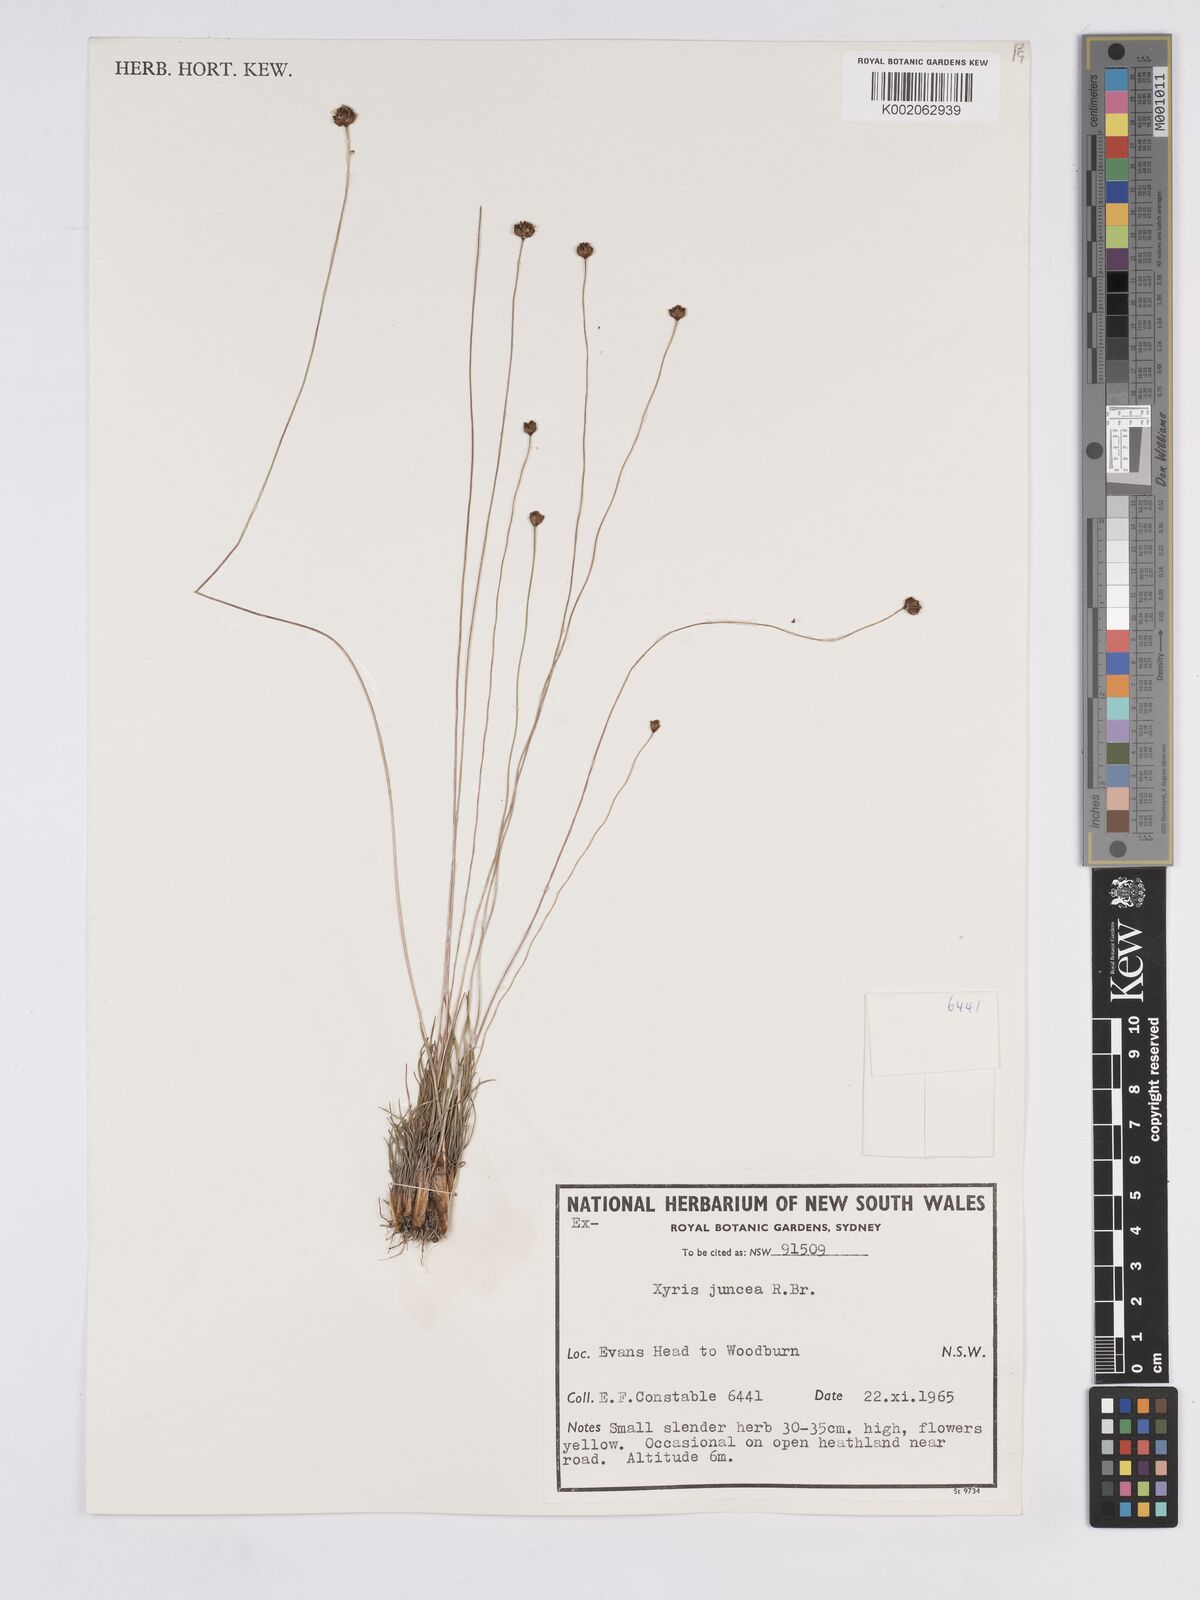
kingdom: Plantae
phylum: Tracheophyta
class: Liliopsida
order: Poales
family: Xyridaceae
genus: Xyris
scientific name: Xyris juncea
